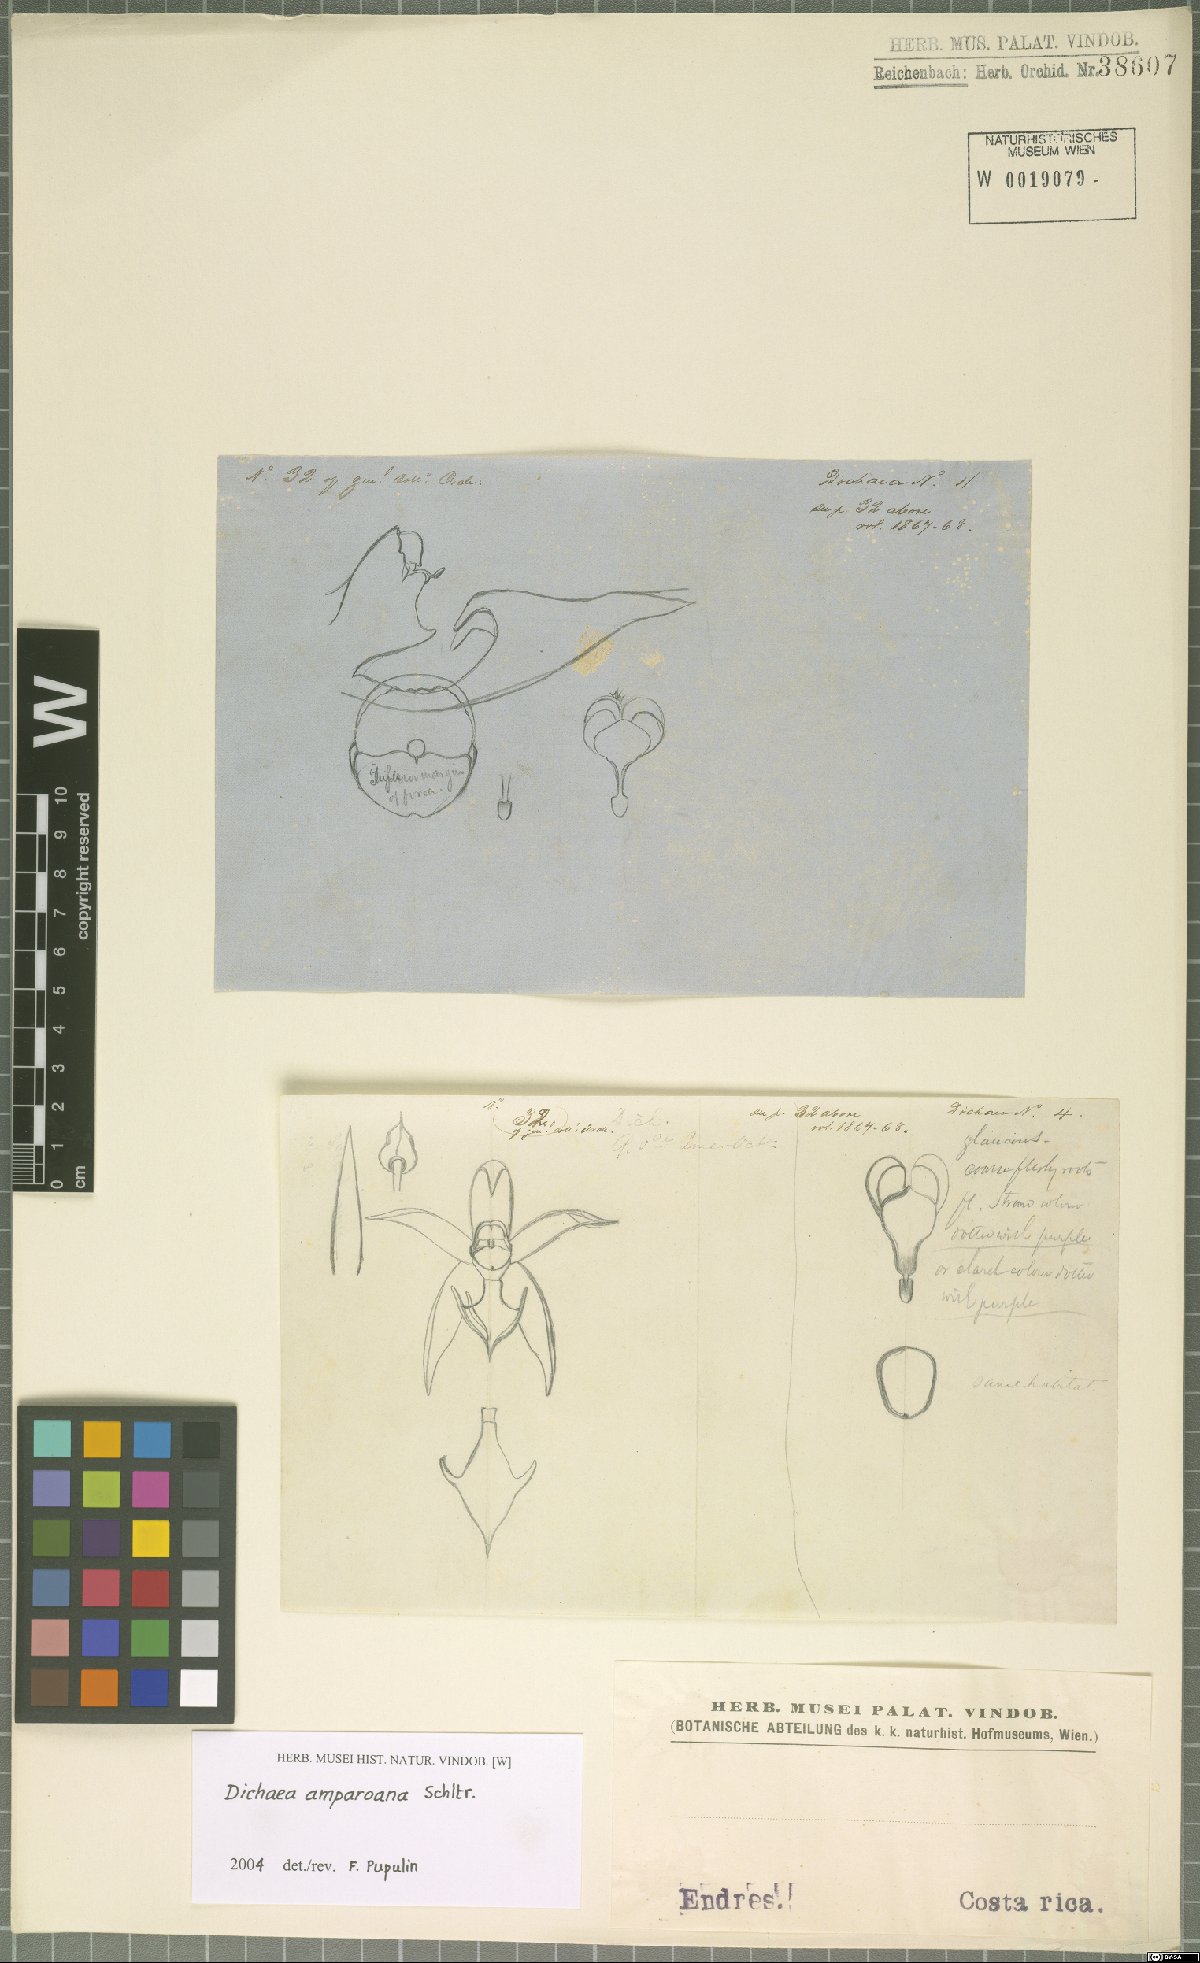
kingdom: Plantae
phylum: Tracheophyta
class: Liliopsida
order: Asparagales
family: Orchidaceae
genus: Dichaea
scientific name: Dichaea amparoana
